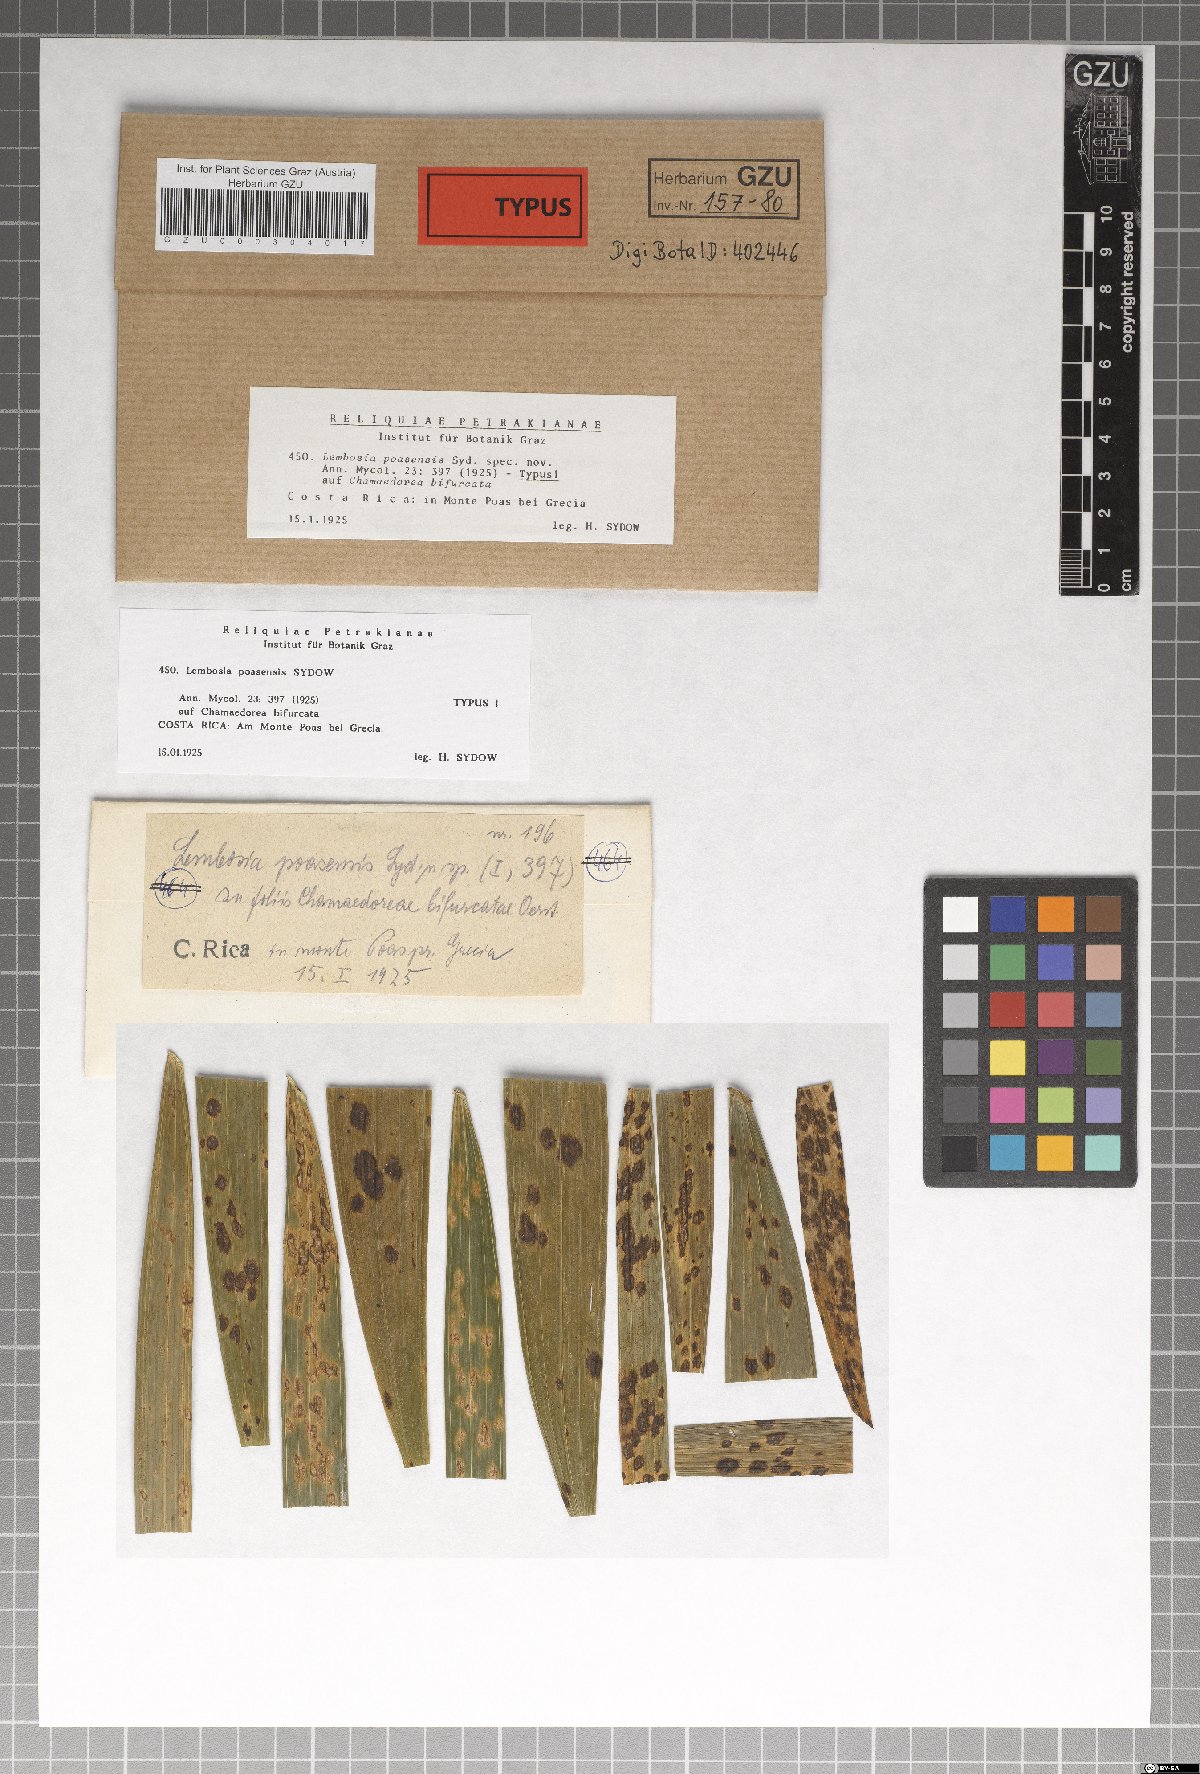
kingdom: Fungi
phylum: Ascomycota
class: Dothideomycetes
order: Asterinales
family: Asterinaceae
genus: Lembosia
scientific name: Lembosia poasensis
